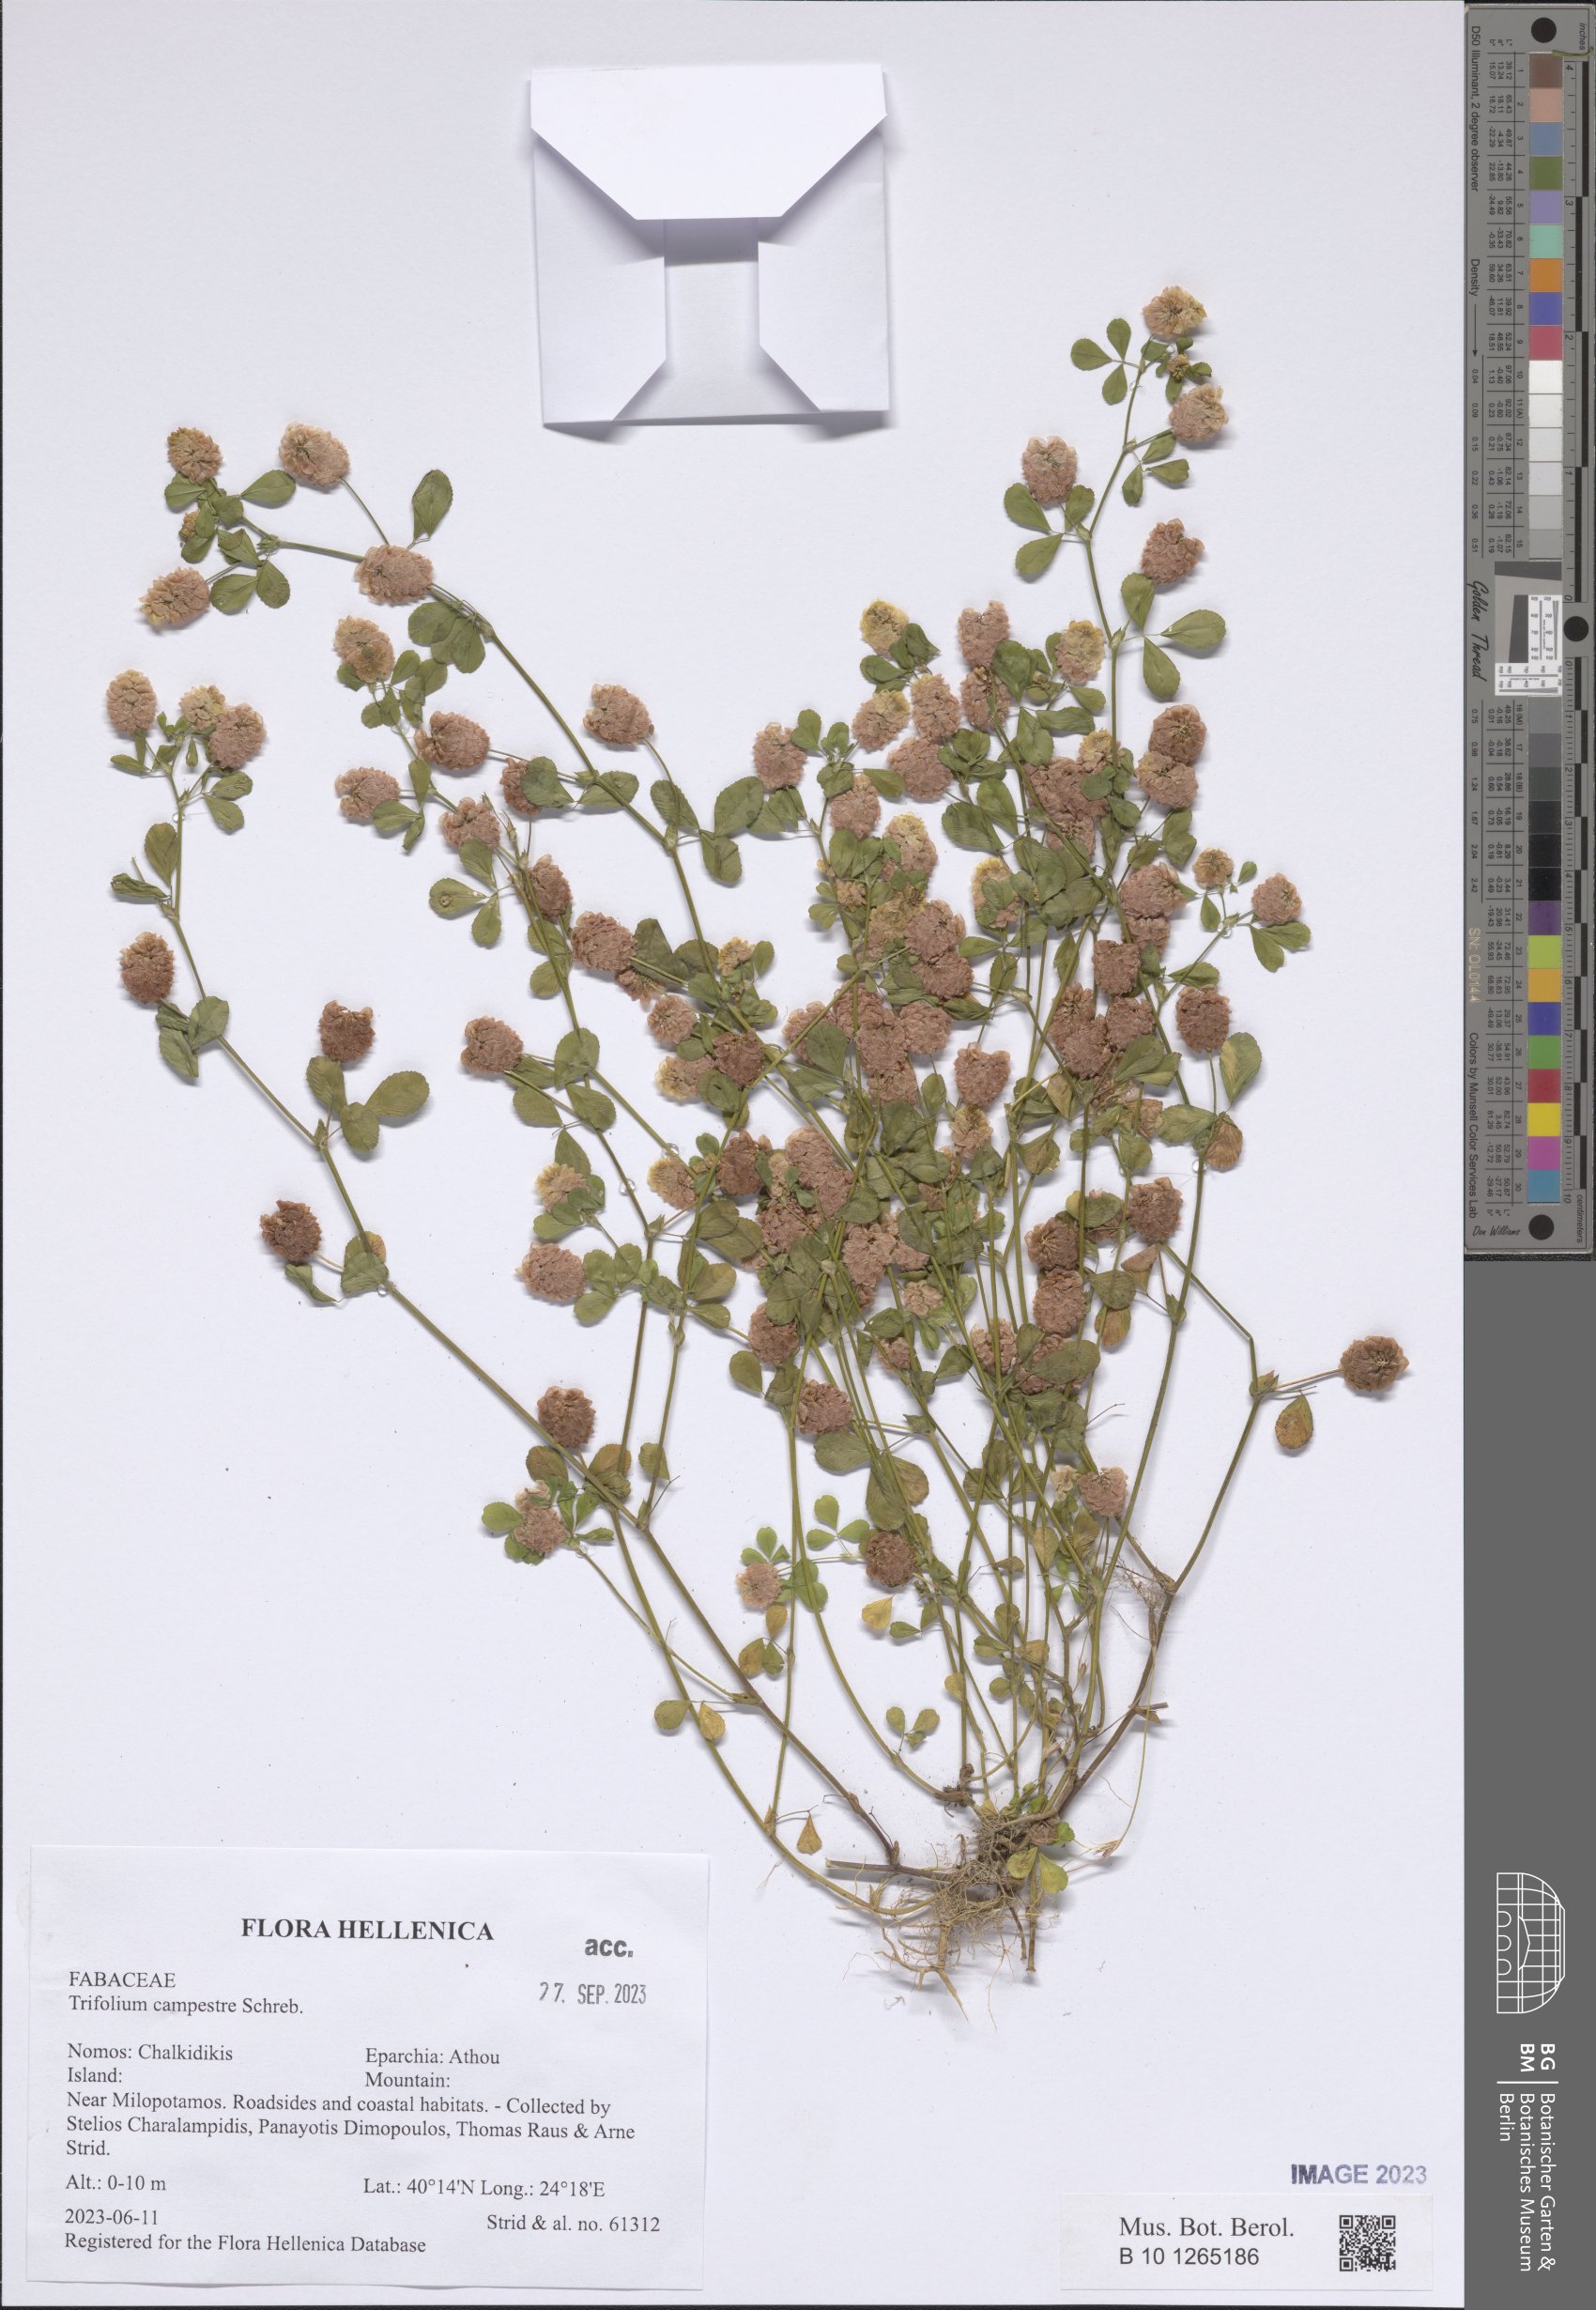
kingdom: Plantae
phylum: Tracheophyta
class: Magnoliopsida
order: Fabales
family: Fabaceae
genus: Trifolium
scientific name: Trifolium campestre
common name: Field clover
